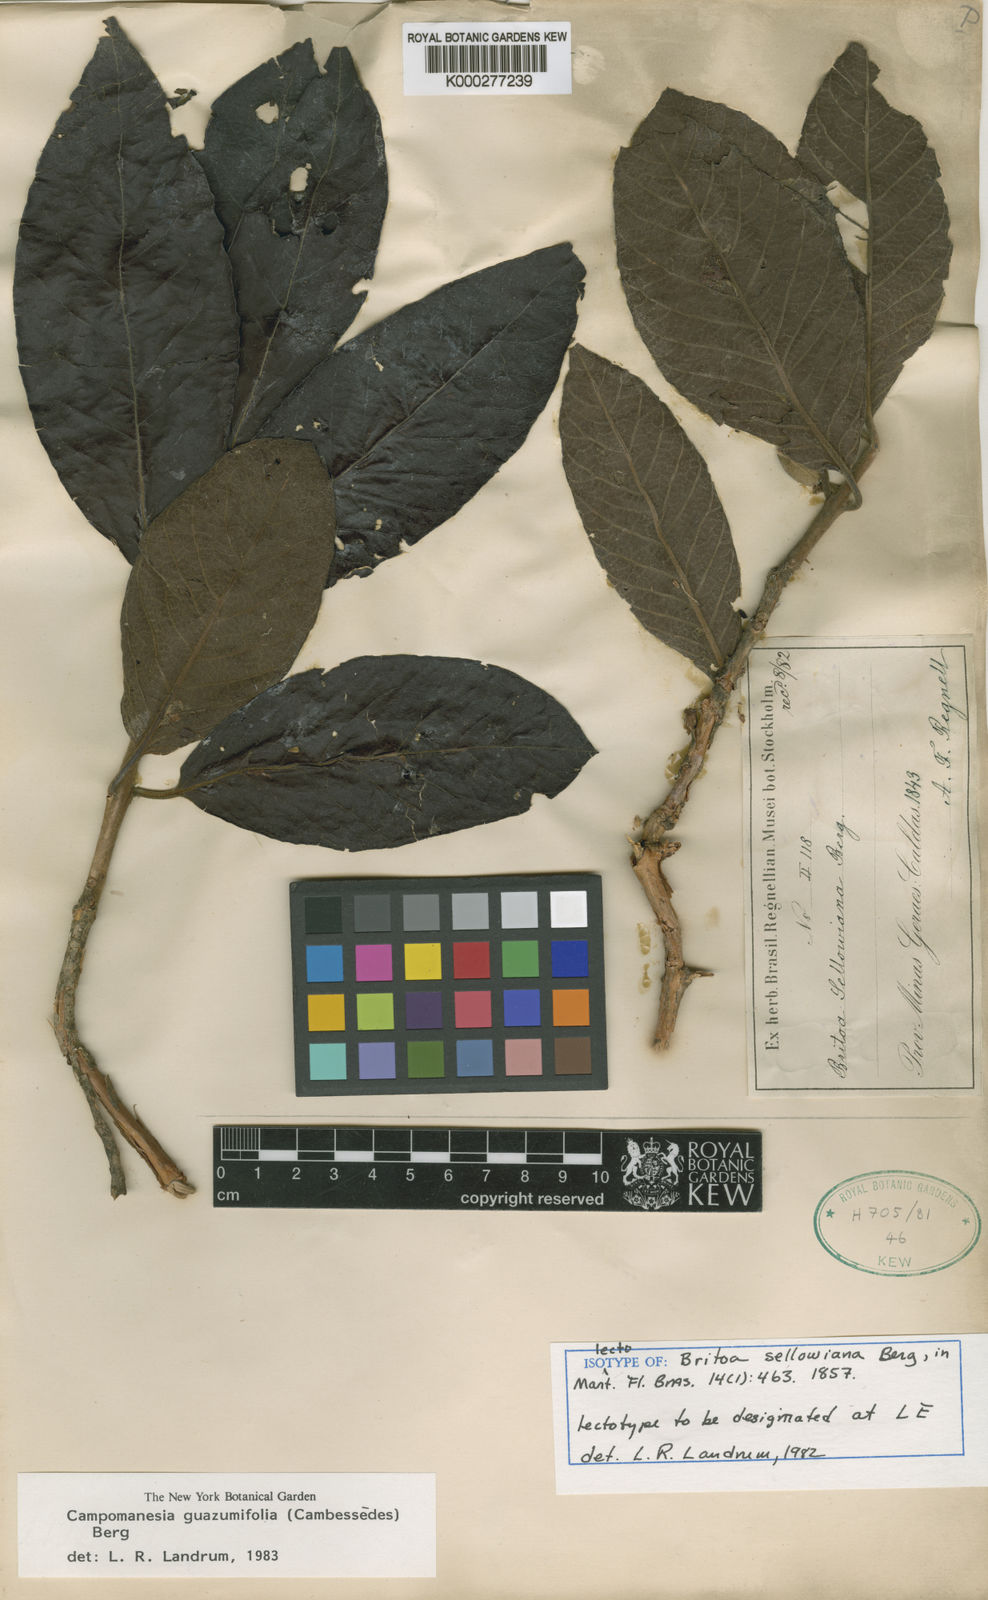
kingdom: Plantae
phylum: Tracheophyta
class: Magnoliopsida
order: Myrtales
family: Myrtaceae
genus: Campomanesia
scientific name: Campomanesia guazumifolia
